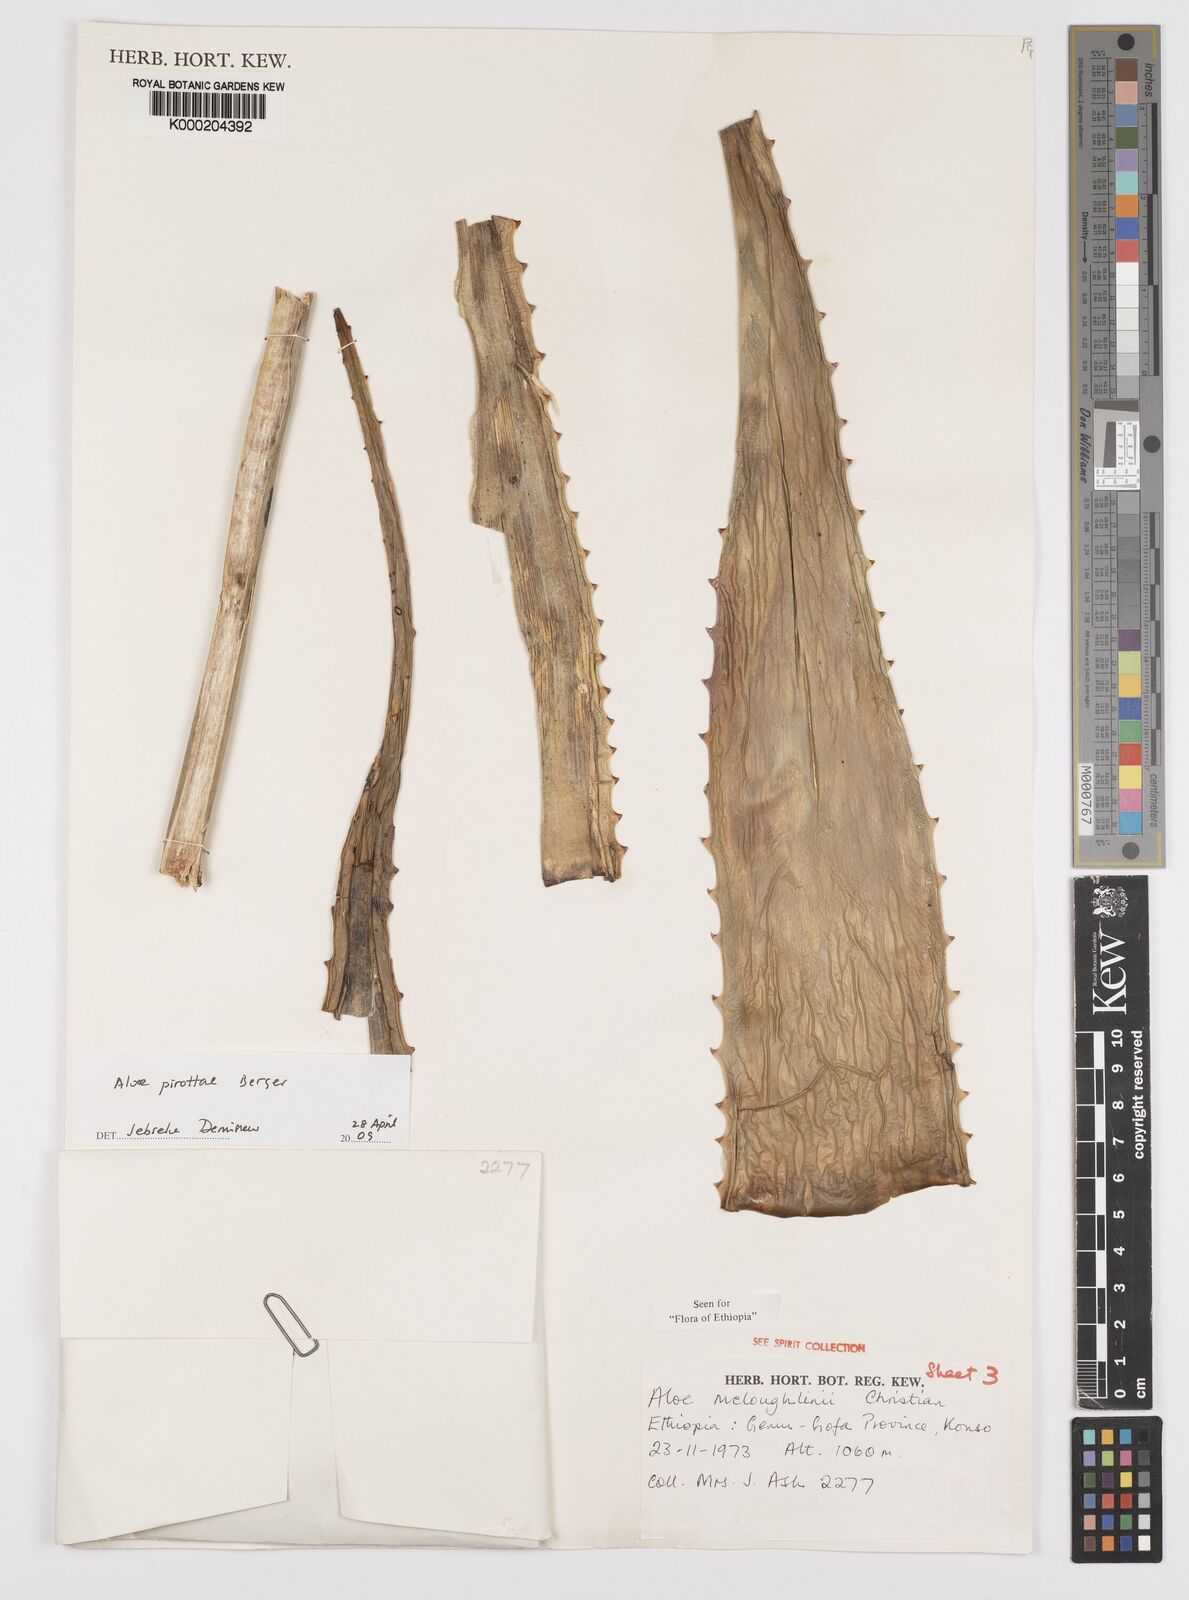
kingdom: Plantae
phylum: Tracheophyta
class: Liliopsida
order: Asparagales
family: Asphodelaceae
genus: Aloe
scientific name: Aloe pirottae
